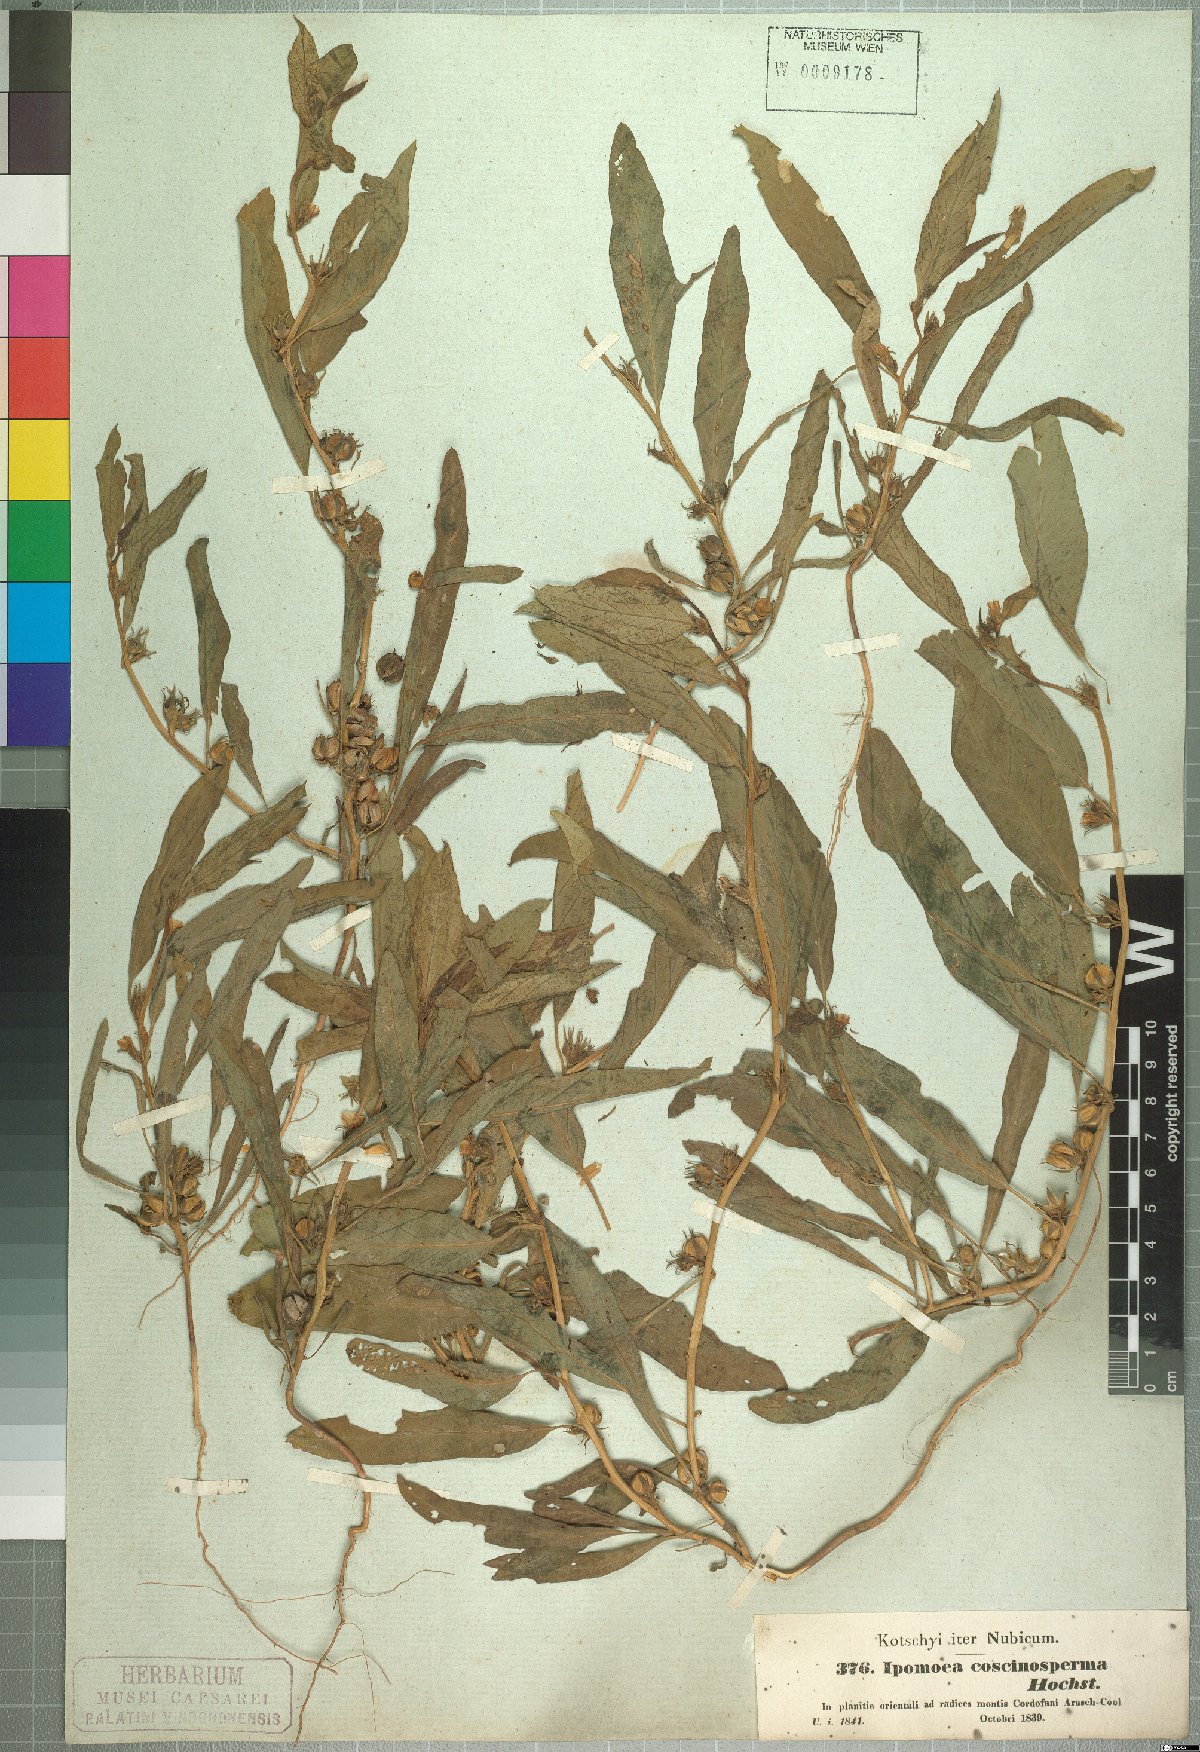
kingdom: Plantae
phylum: Tracheophyta
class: Magnoliopsida
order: Solanales
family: Convolvulaceae
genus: Ipomoea
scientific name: Ipomoea coscinosperma
